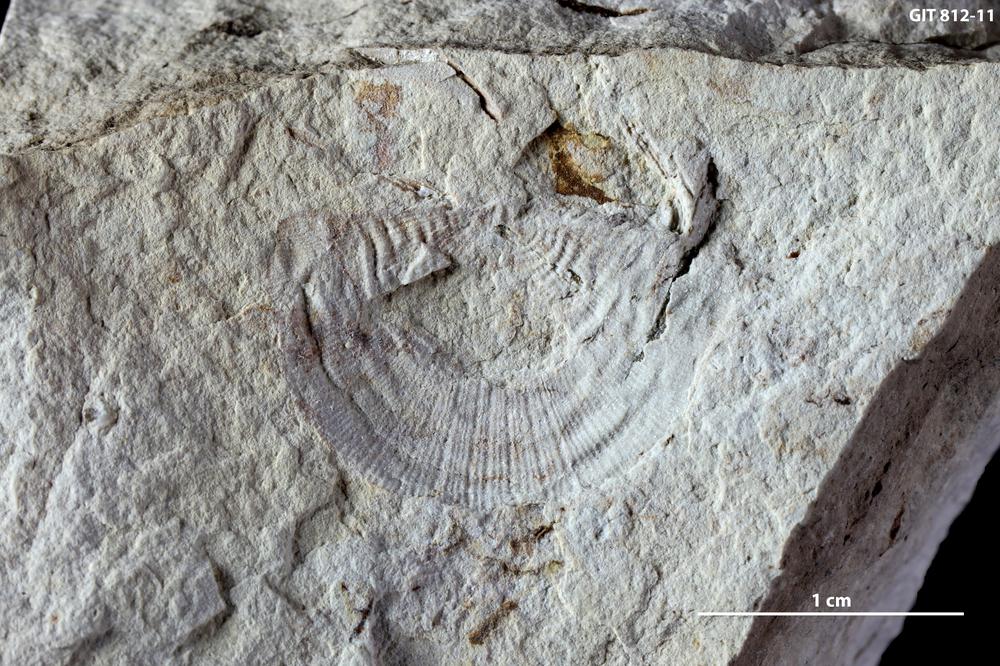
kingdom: Animalia
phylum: Brachiopoda
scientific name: Brachiopoda
